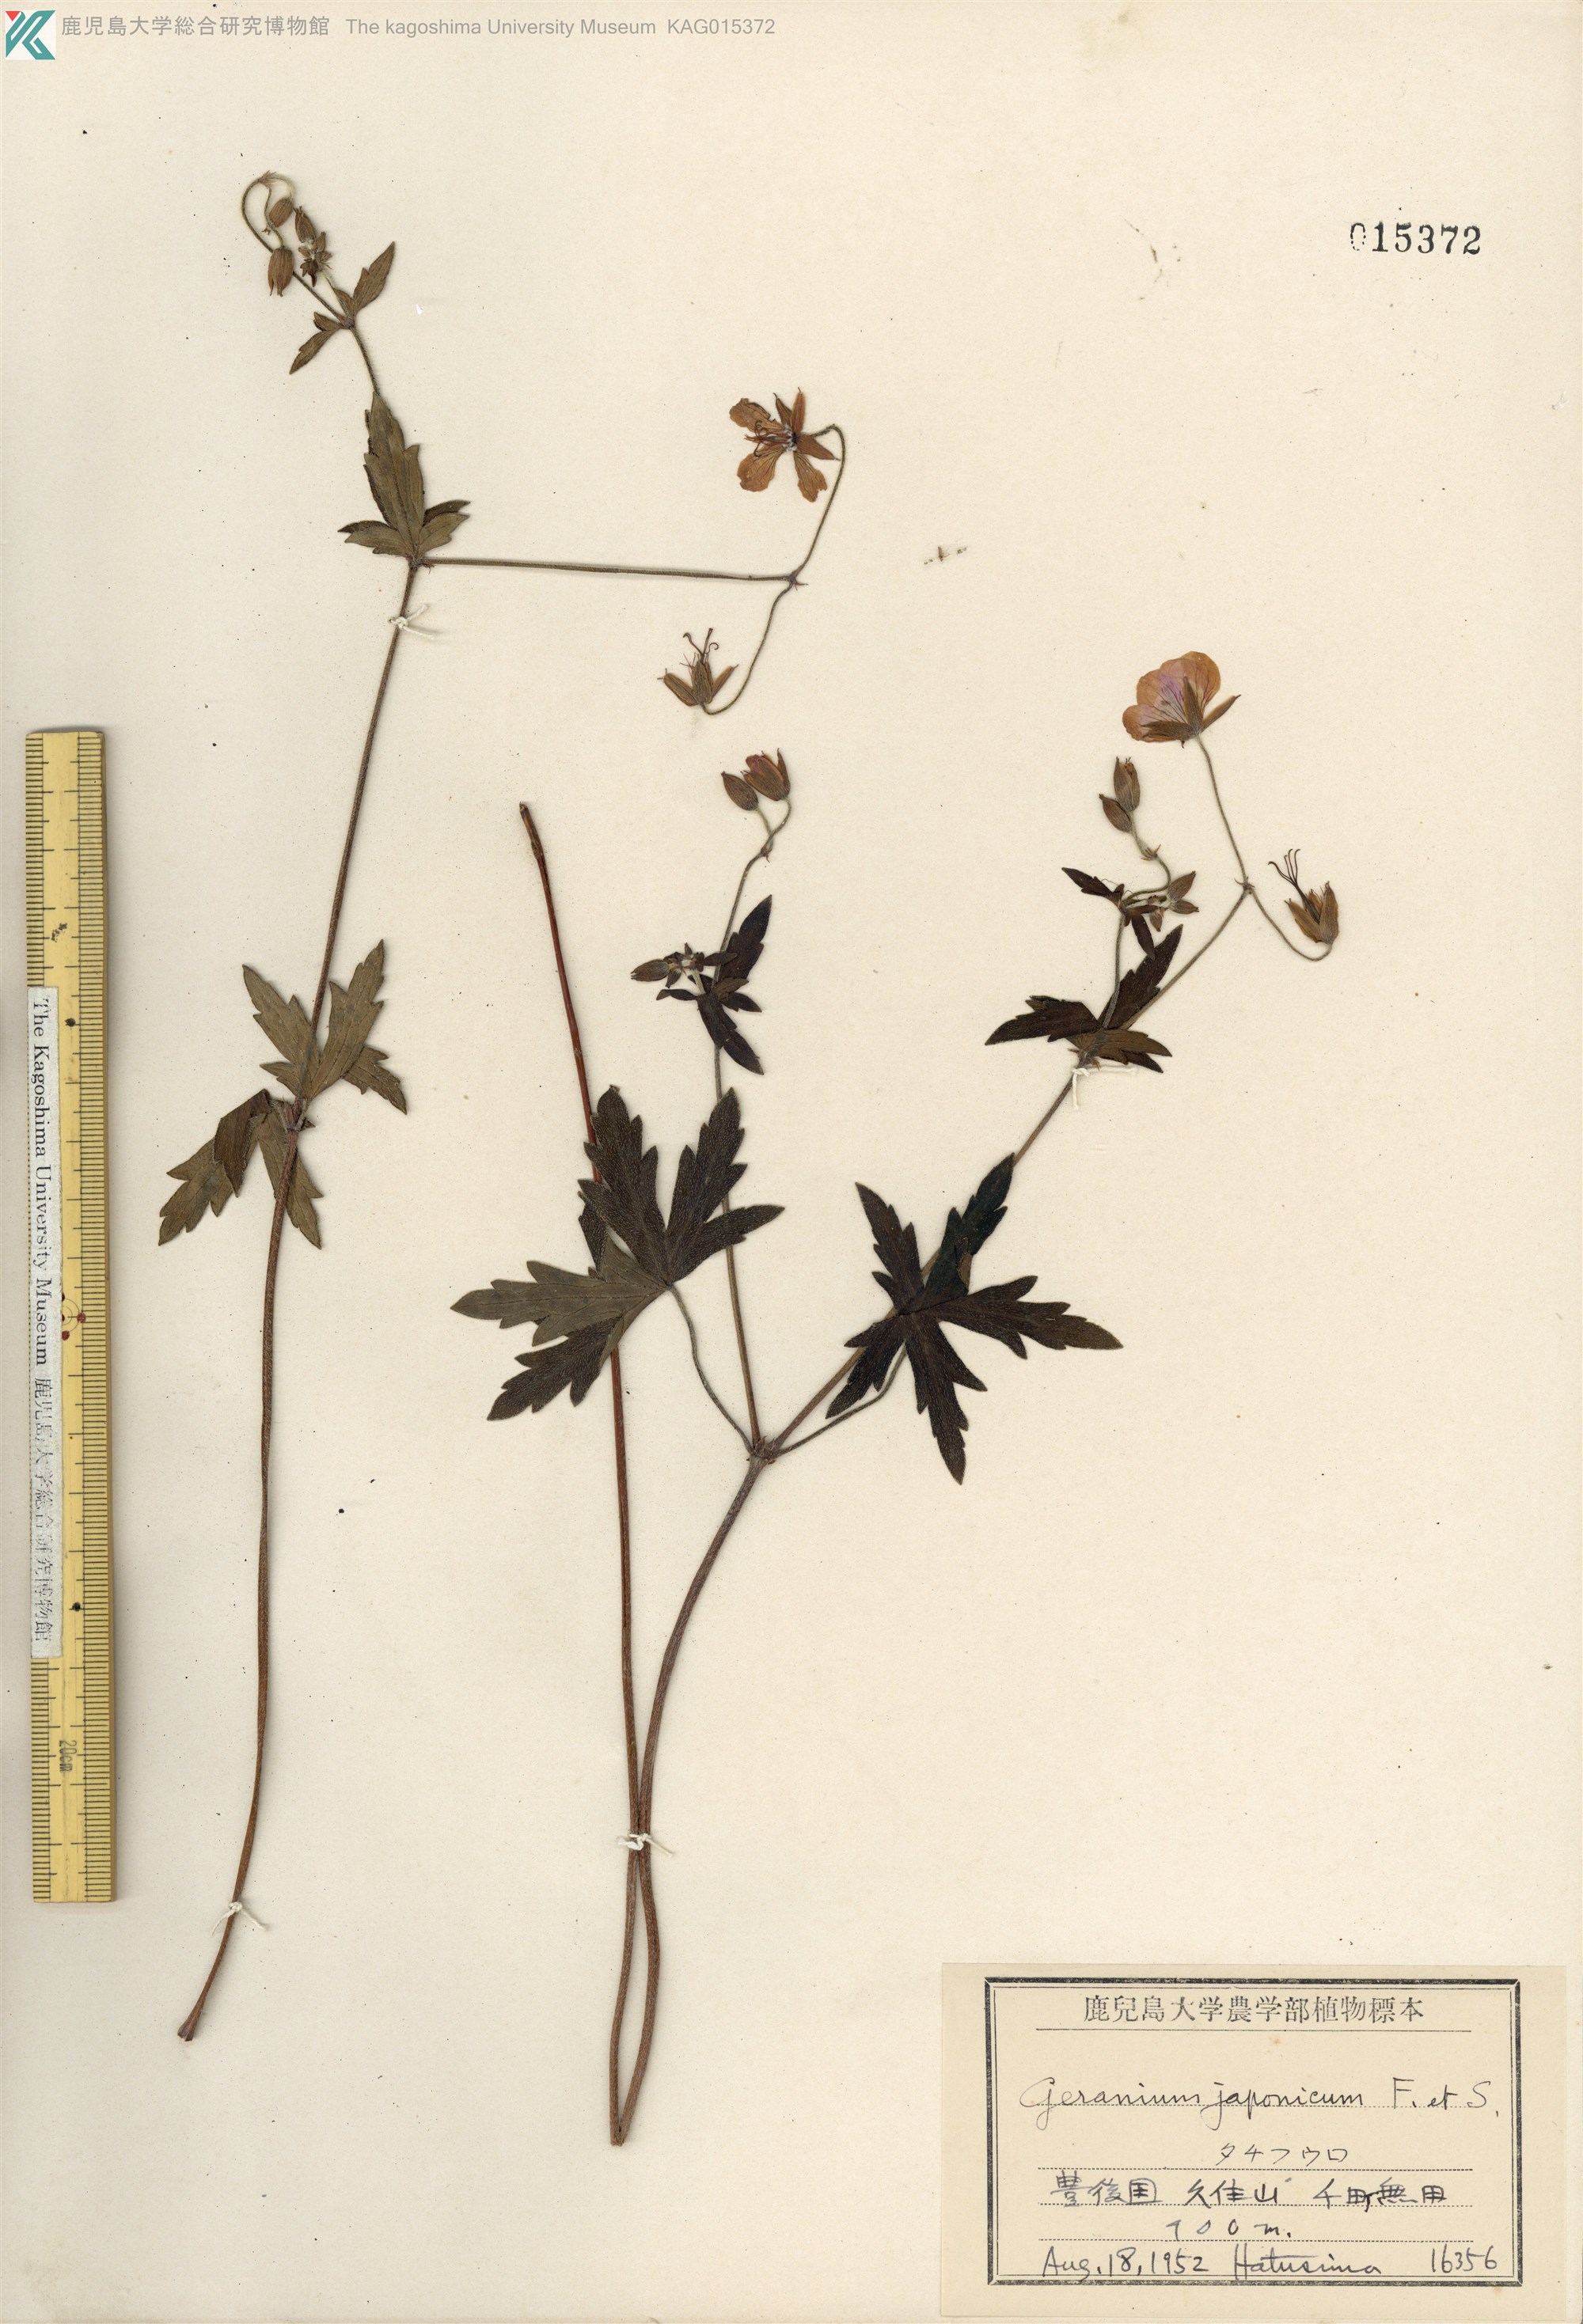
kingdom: Plantae
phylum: Tracheophyta
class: Magnoliopsida
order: Geraniales
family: Geraniaceae
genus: Geranium
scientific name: Geranium krameri
